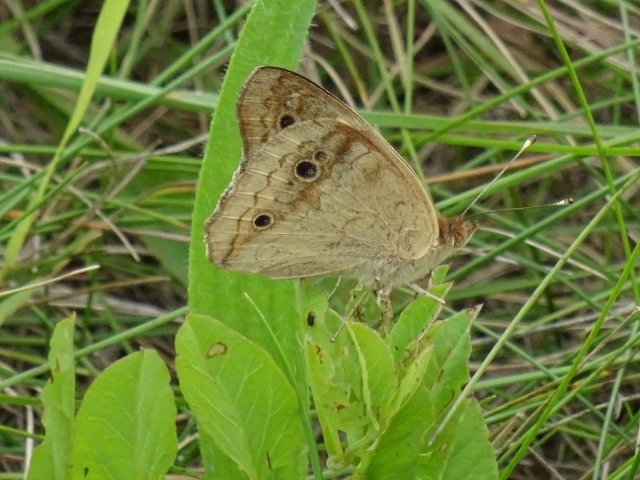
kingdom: Animalia
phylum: Arthropoda
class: Insecta
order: Lepidoptera
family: Nymphalidae
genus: Junonia
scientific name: Junonia coenia
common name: Common Buckeye
